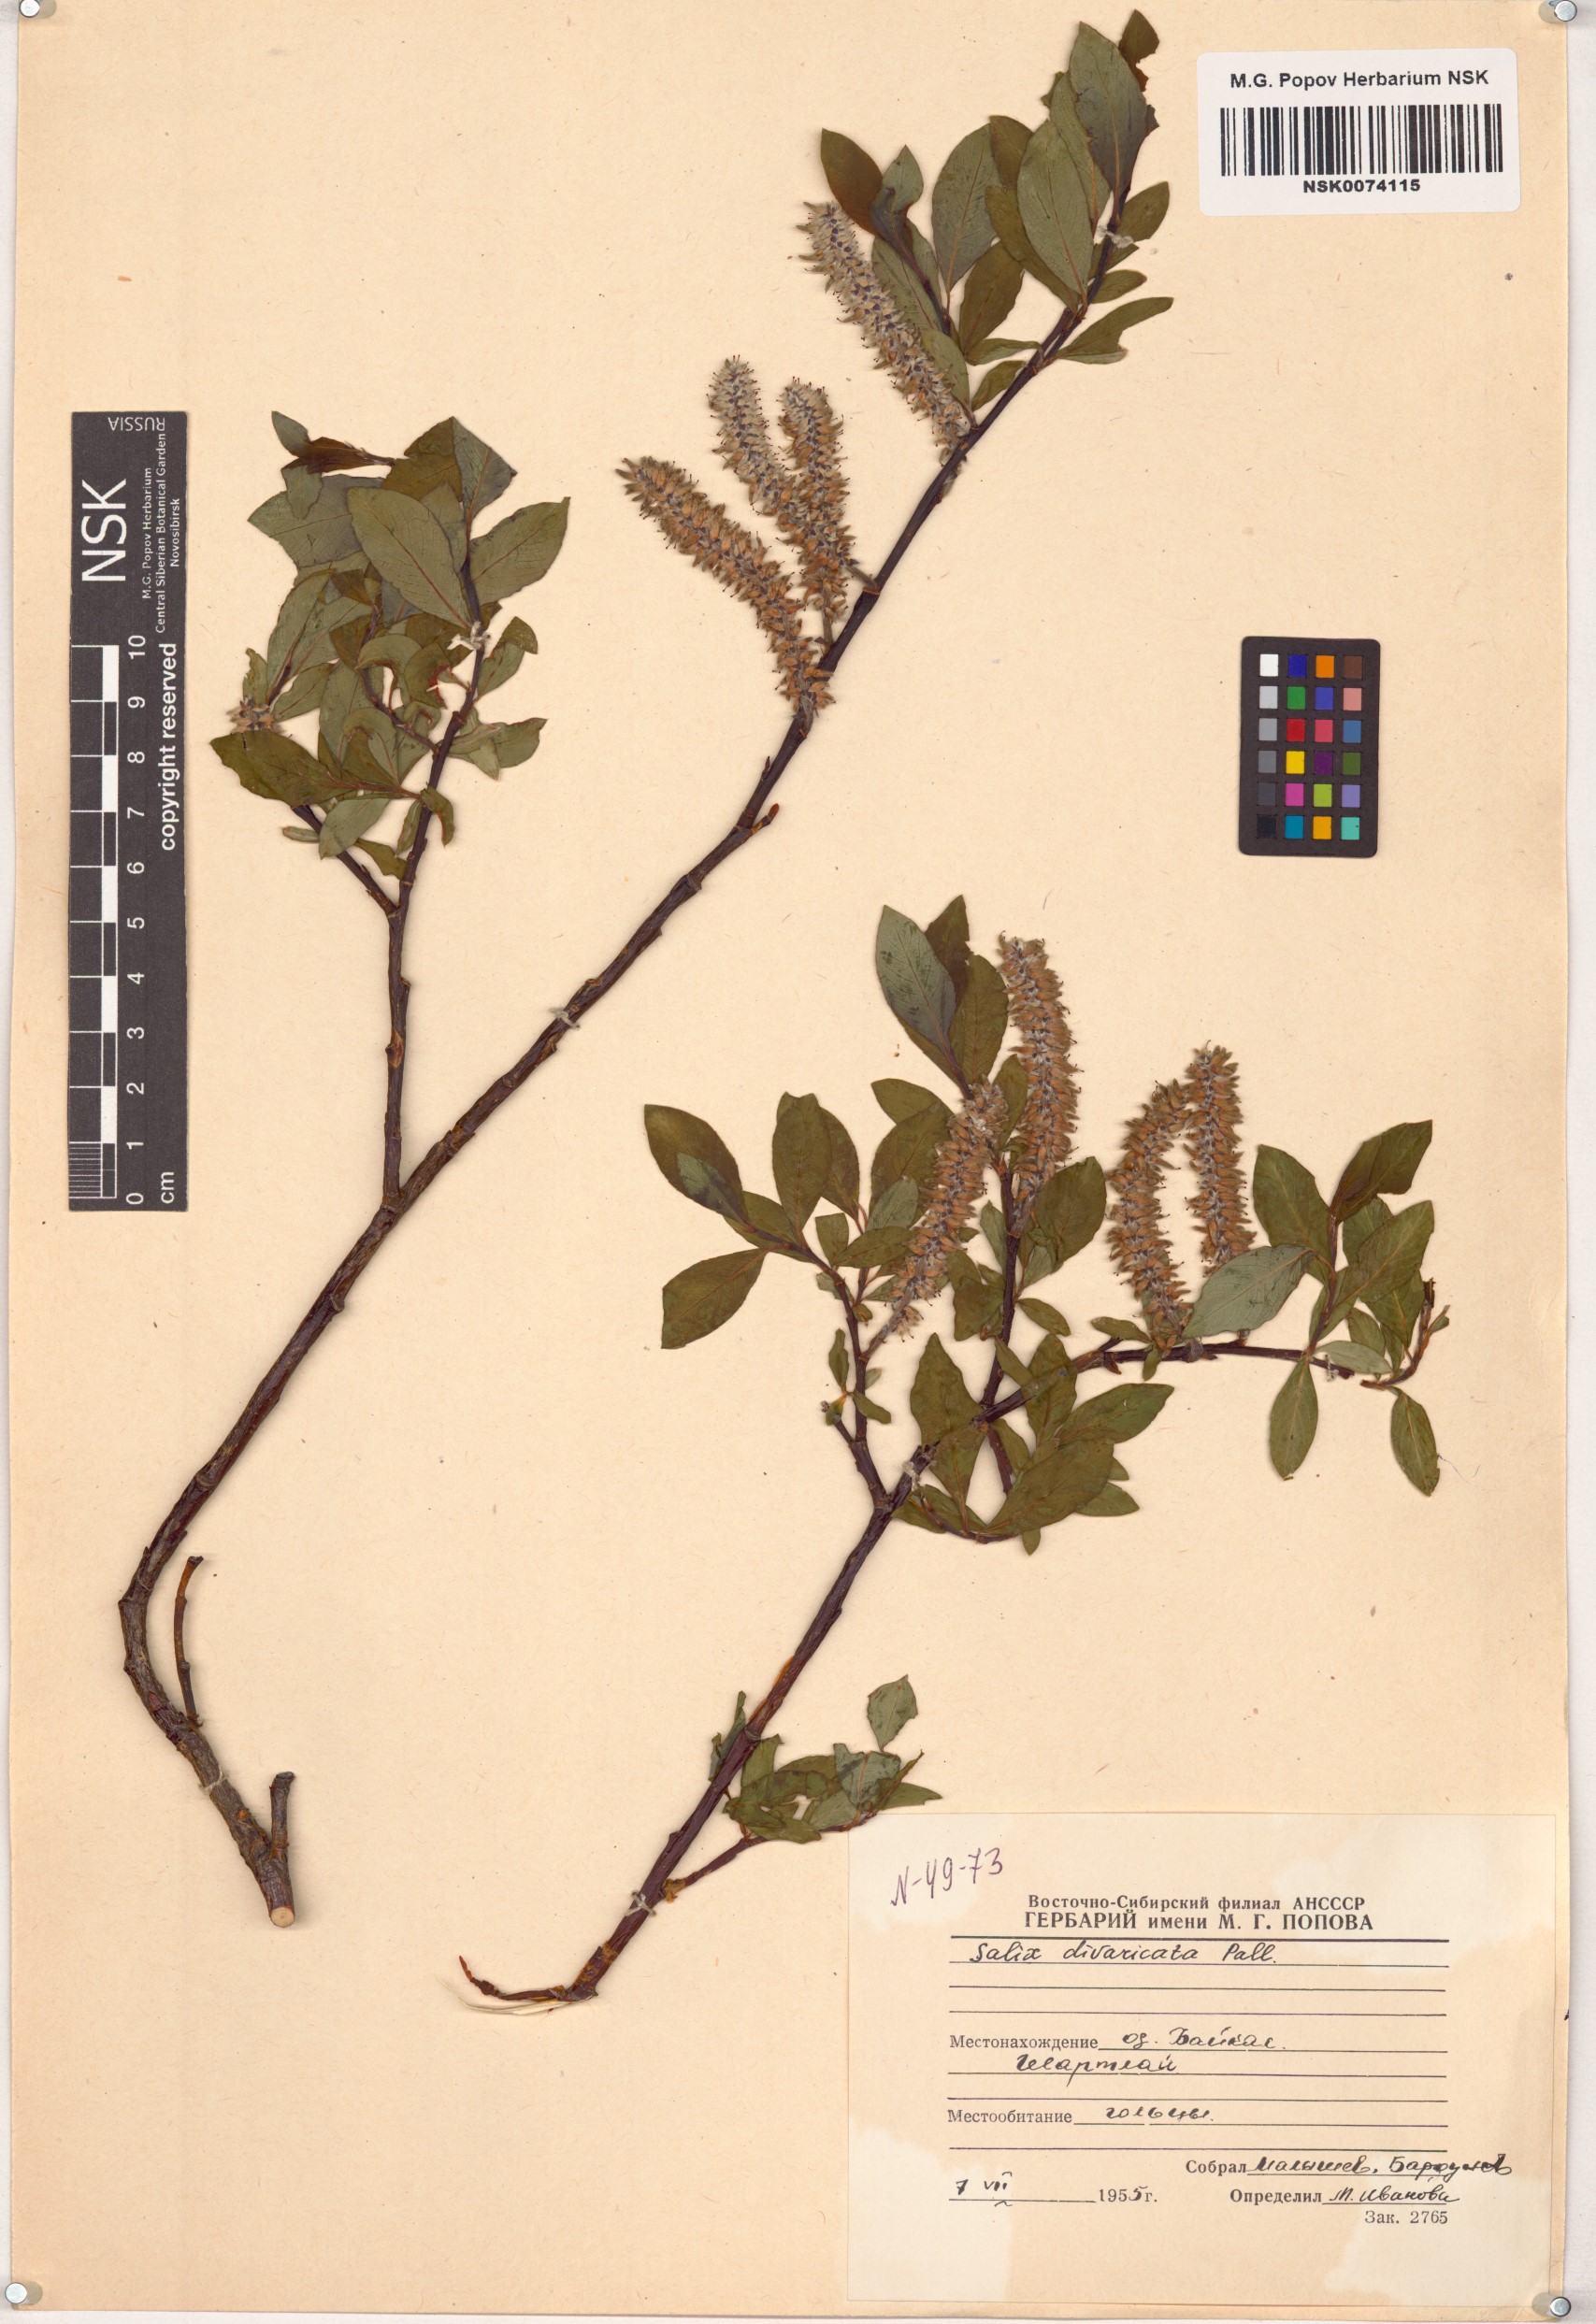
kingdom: Plantae
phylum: Tracheophyta
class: Magnoliopsida
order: Malpighiales
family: Salicaceae
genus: Salix
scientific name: Salix divaricata
